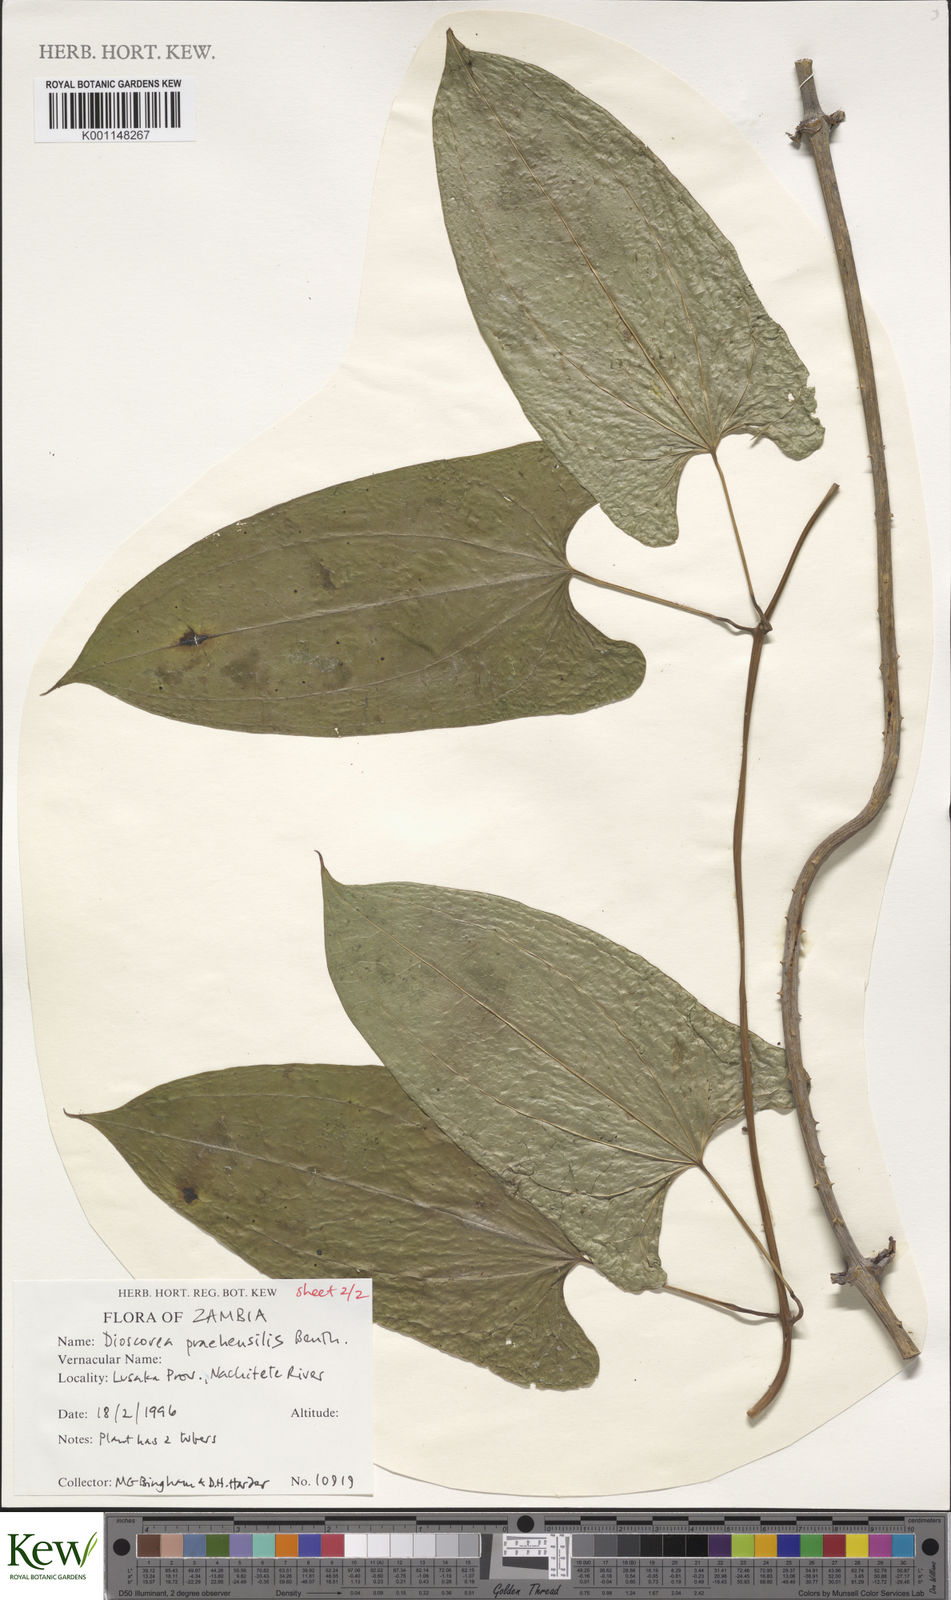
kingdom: Plantae
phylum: Tracheophyta
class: Liliopsida
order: Dioscoreales
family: Dioscoreaceae
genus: Dioscorea
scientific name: Dioscorea praehensilis
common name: Bush yam
